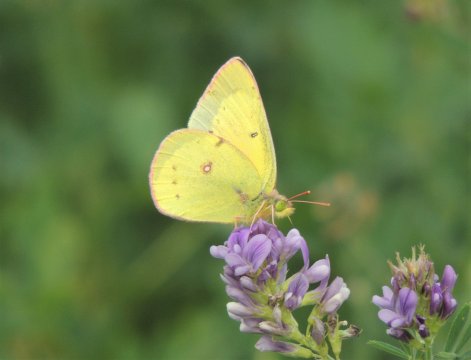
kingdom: Animalia
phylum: Arthropoda
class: Insecta
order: Lepidoptera
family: Pieridae
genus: Colias
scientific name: Colias eurytheme
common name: Orange Sulphur
